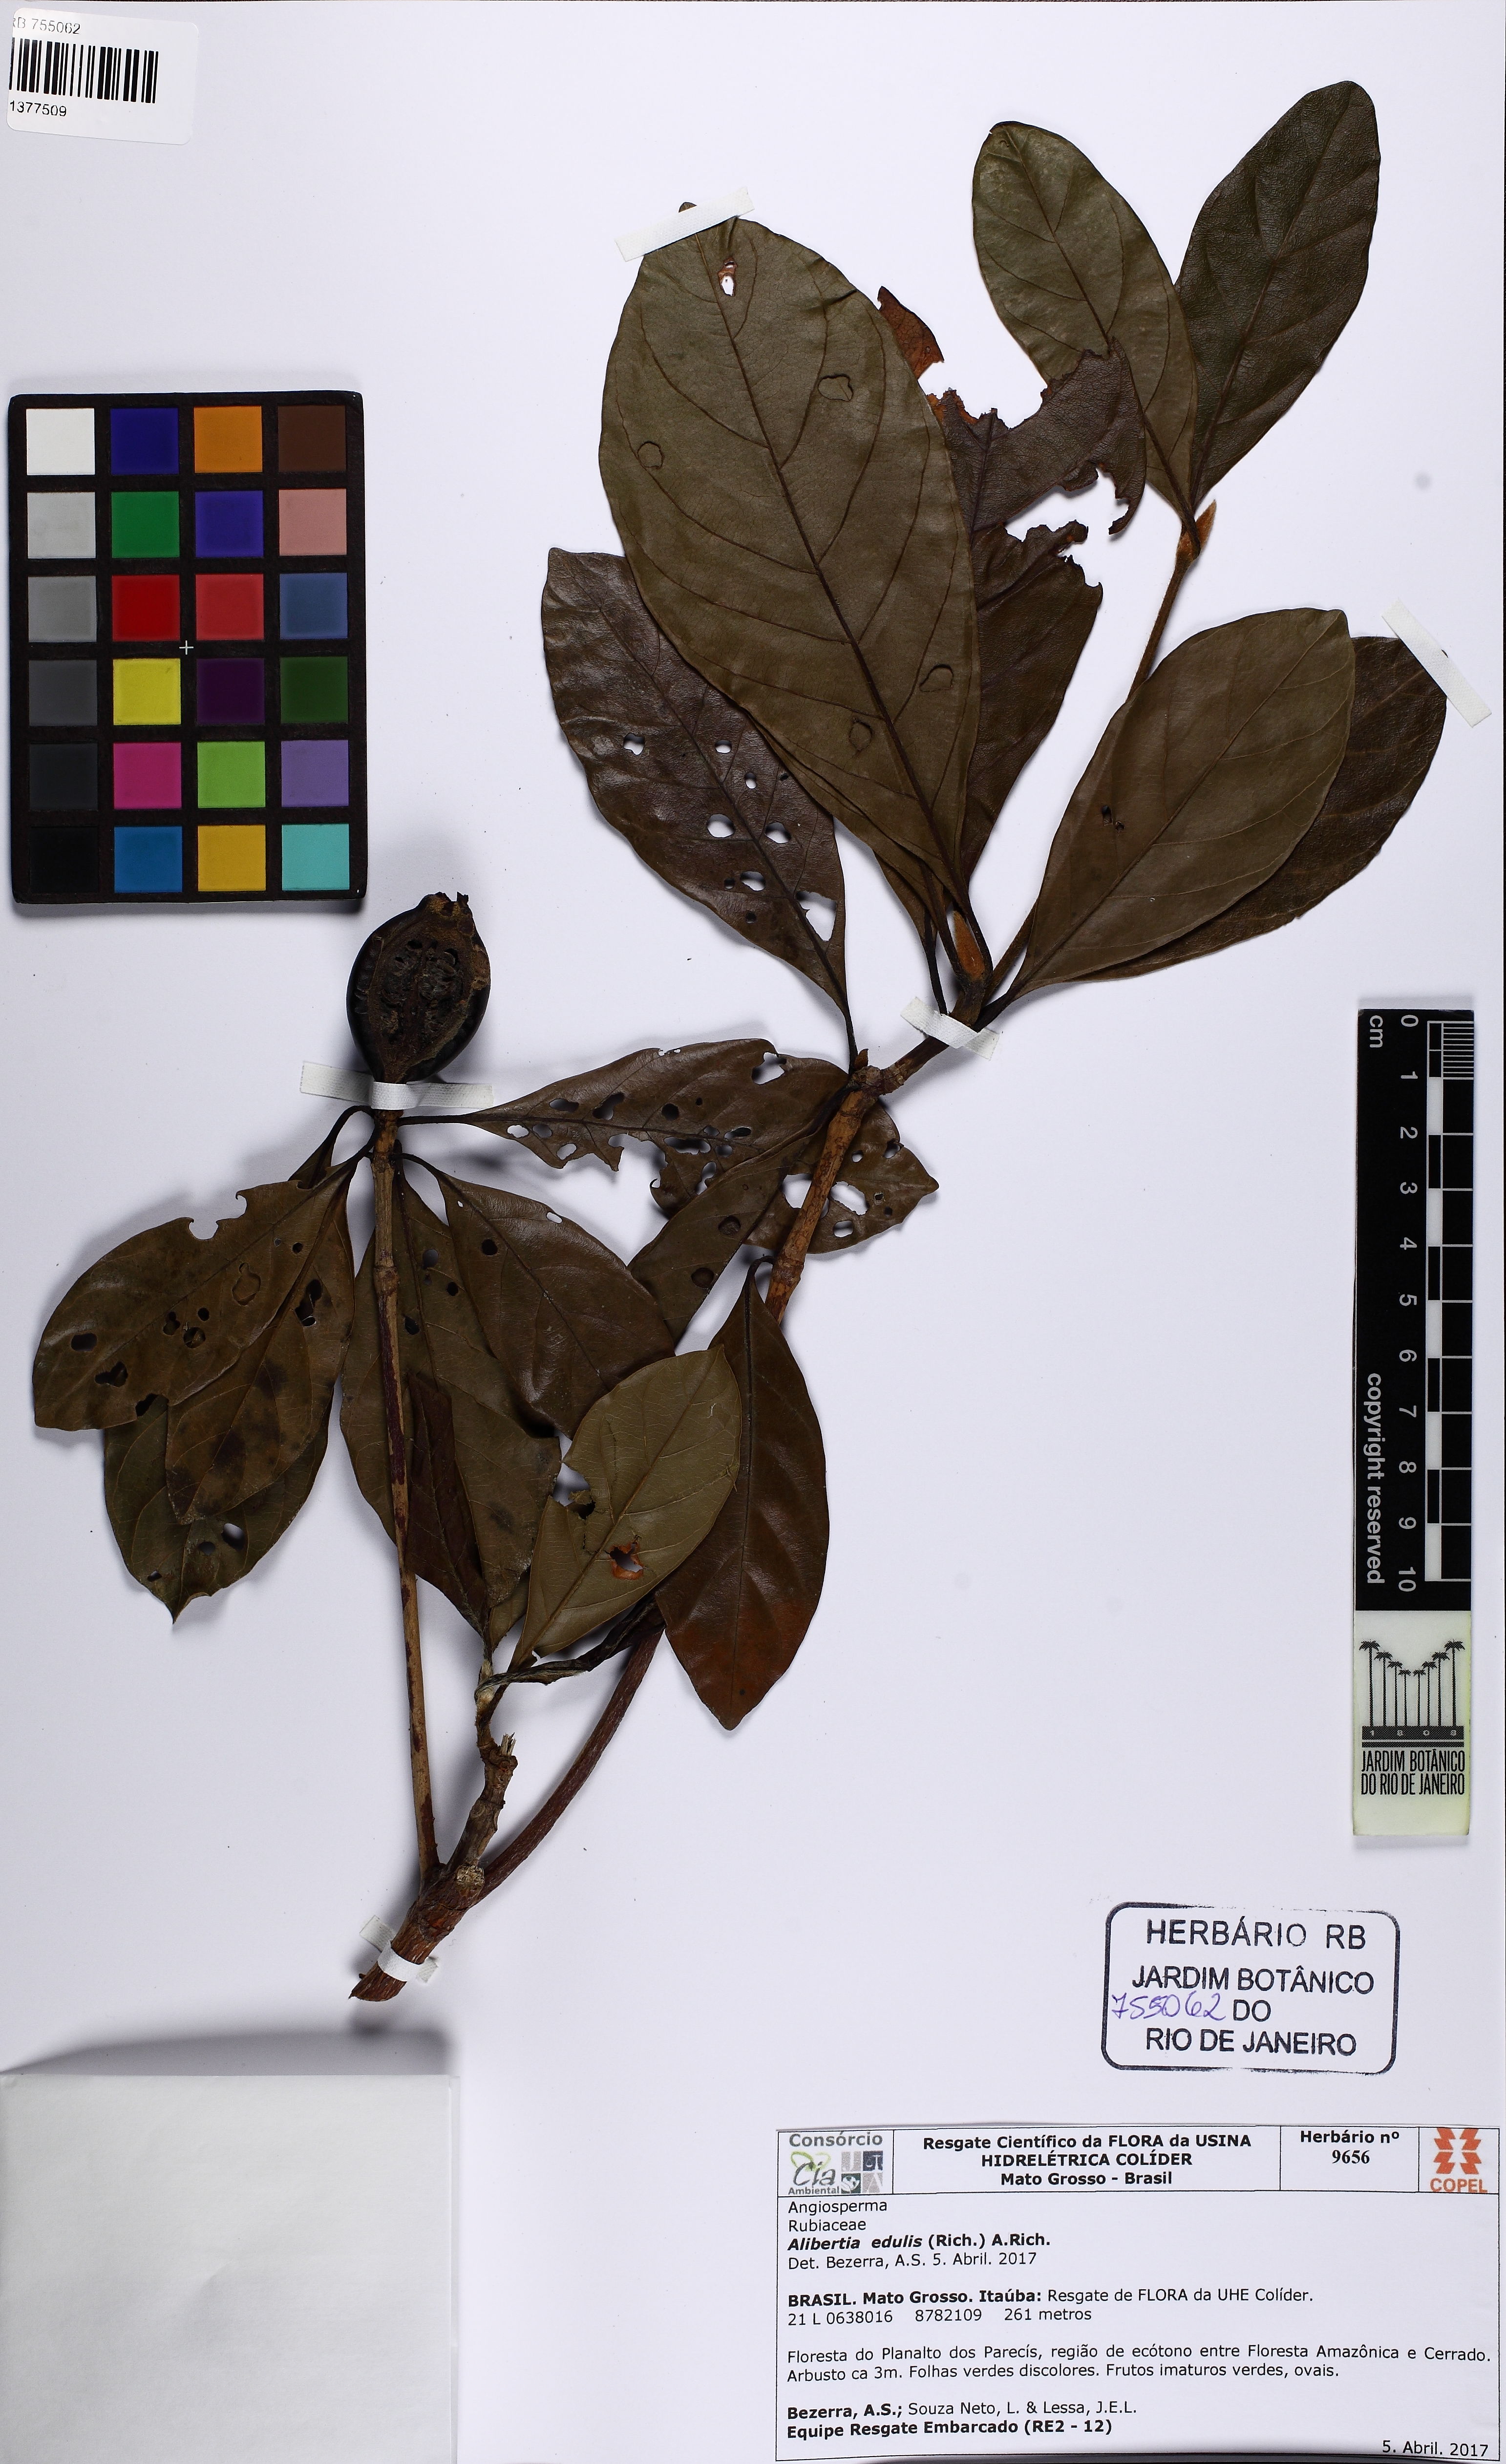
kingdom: Plantae
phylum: Tracheophyta
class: Magnoliopsida
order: Gentianales
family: Rubiaceae
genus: Amaioua
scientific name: Amaioua
